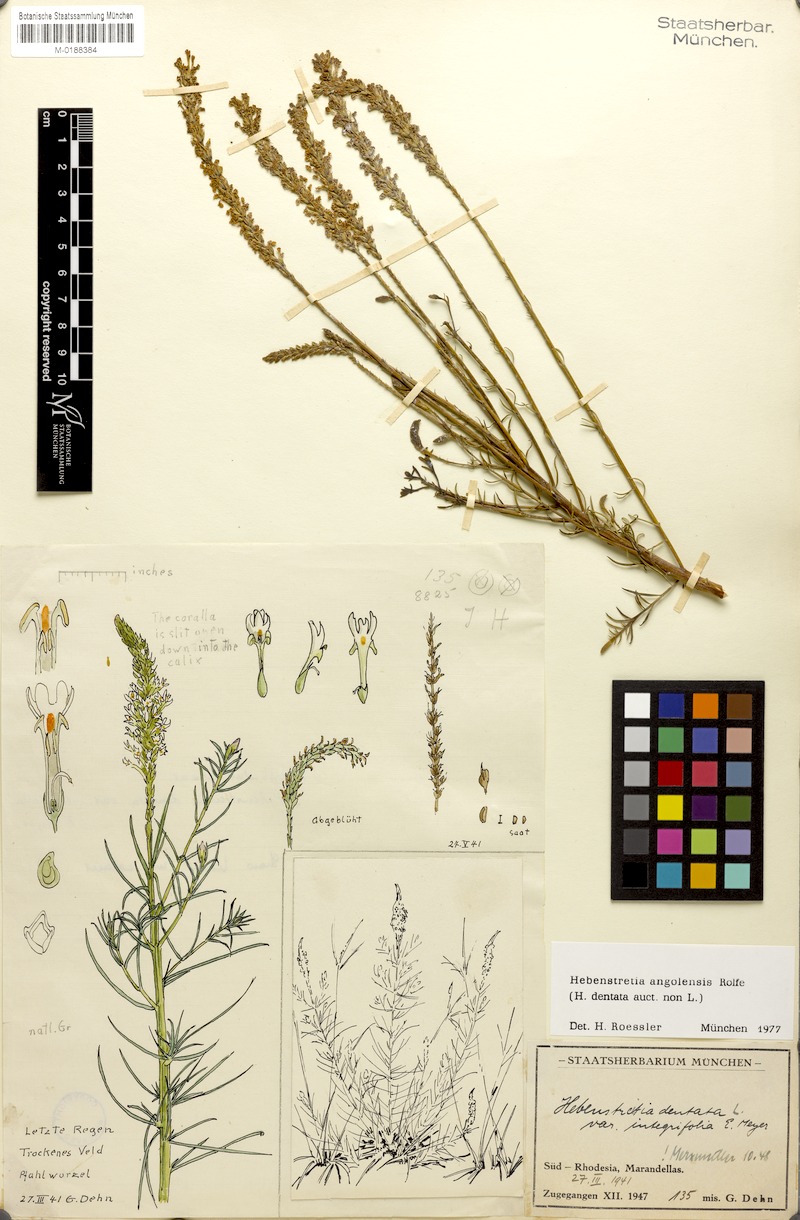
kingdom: Plantae
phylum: Tracheophyta
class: Magnoliopsida
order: Lamiales
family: Scrophulariaceae
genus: Hebenstretia
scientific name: Hebenstretia angolensis
